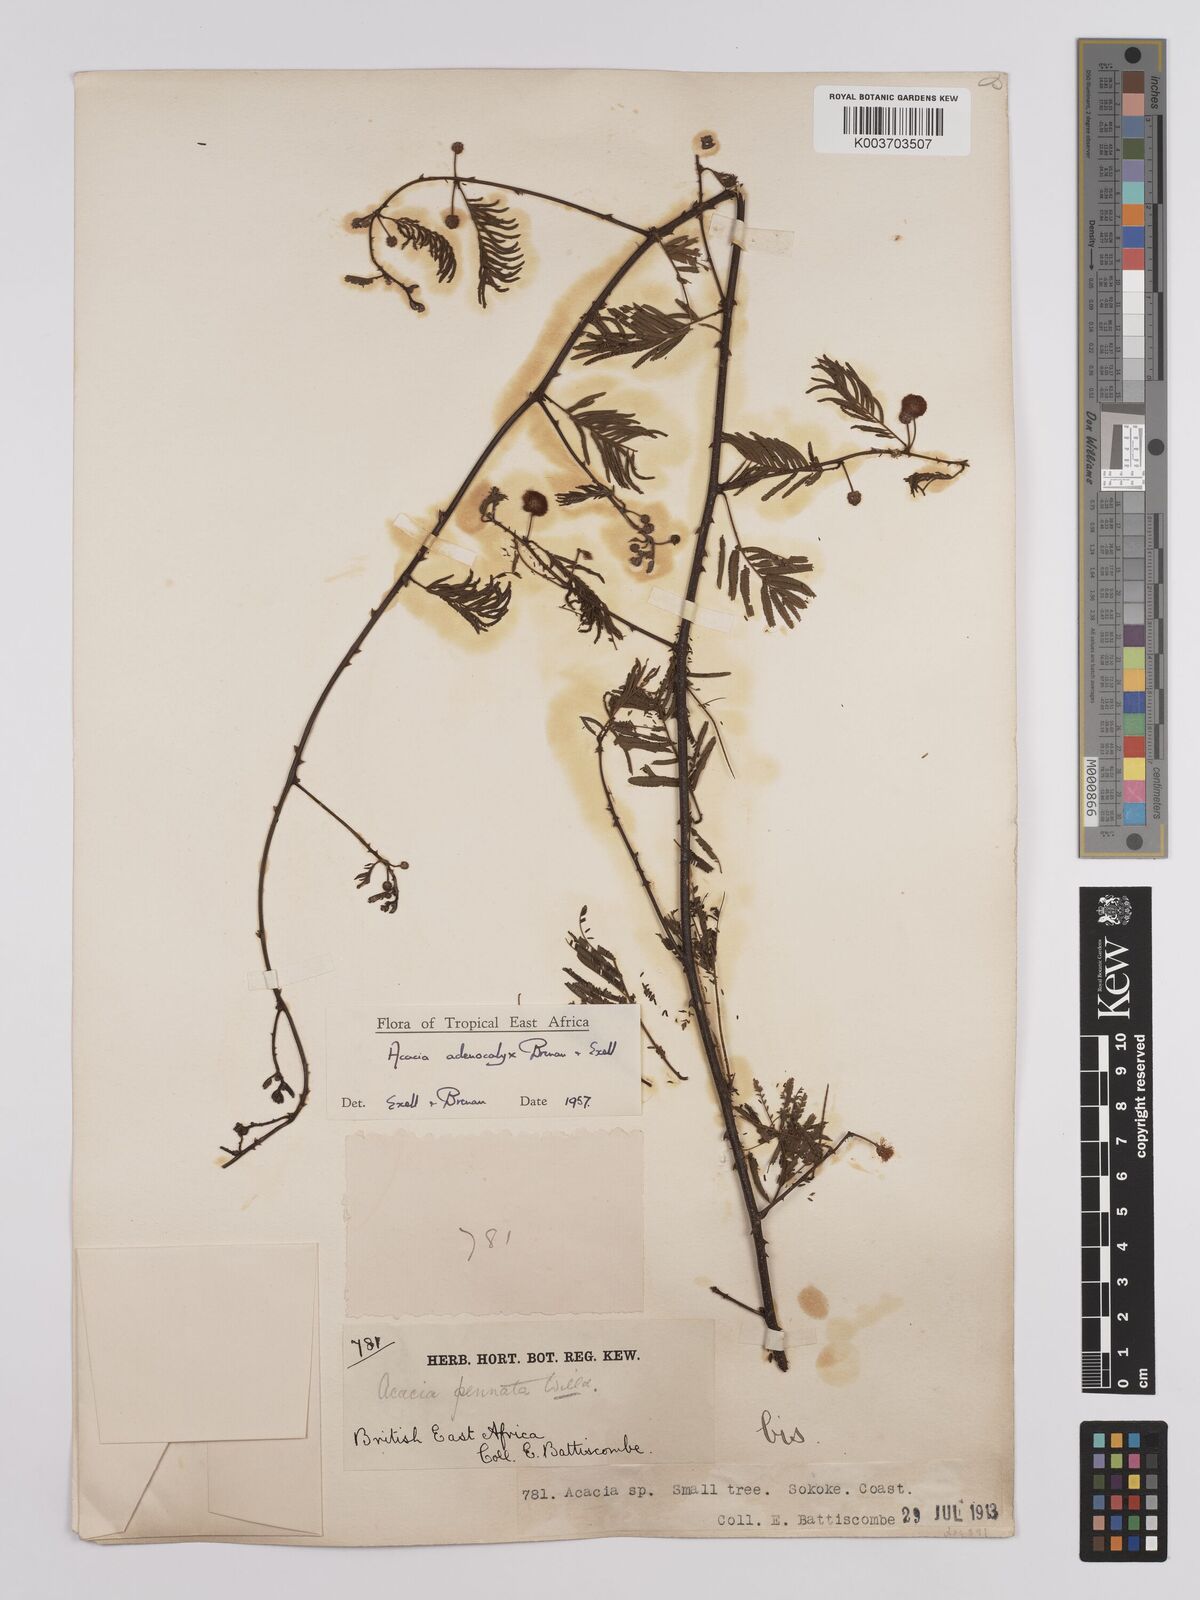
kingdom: Plantae
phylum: Tracheophyta
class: Magnoliopsida
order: Fabales
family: Fabaceae
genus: Senegalia
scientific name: Senegalia adenocalyx
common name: Pfurura
